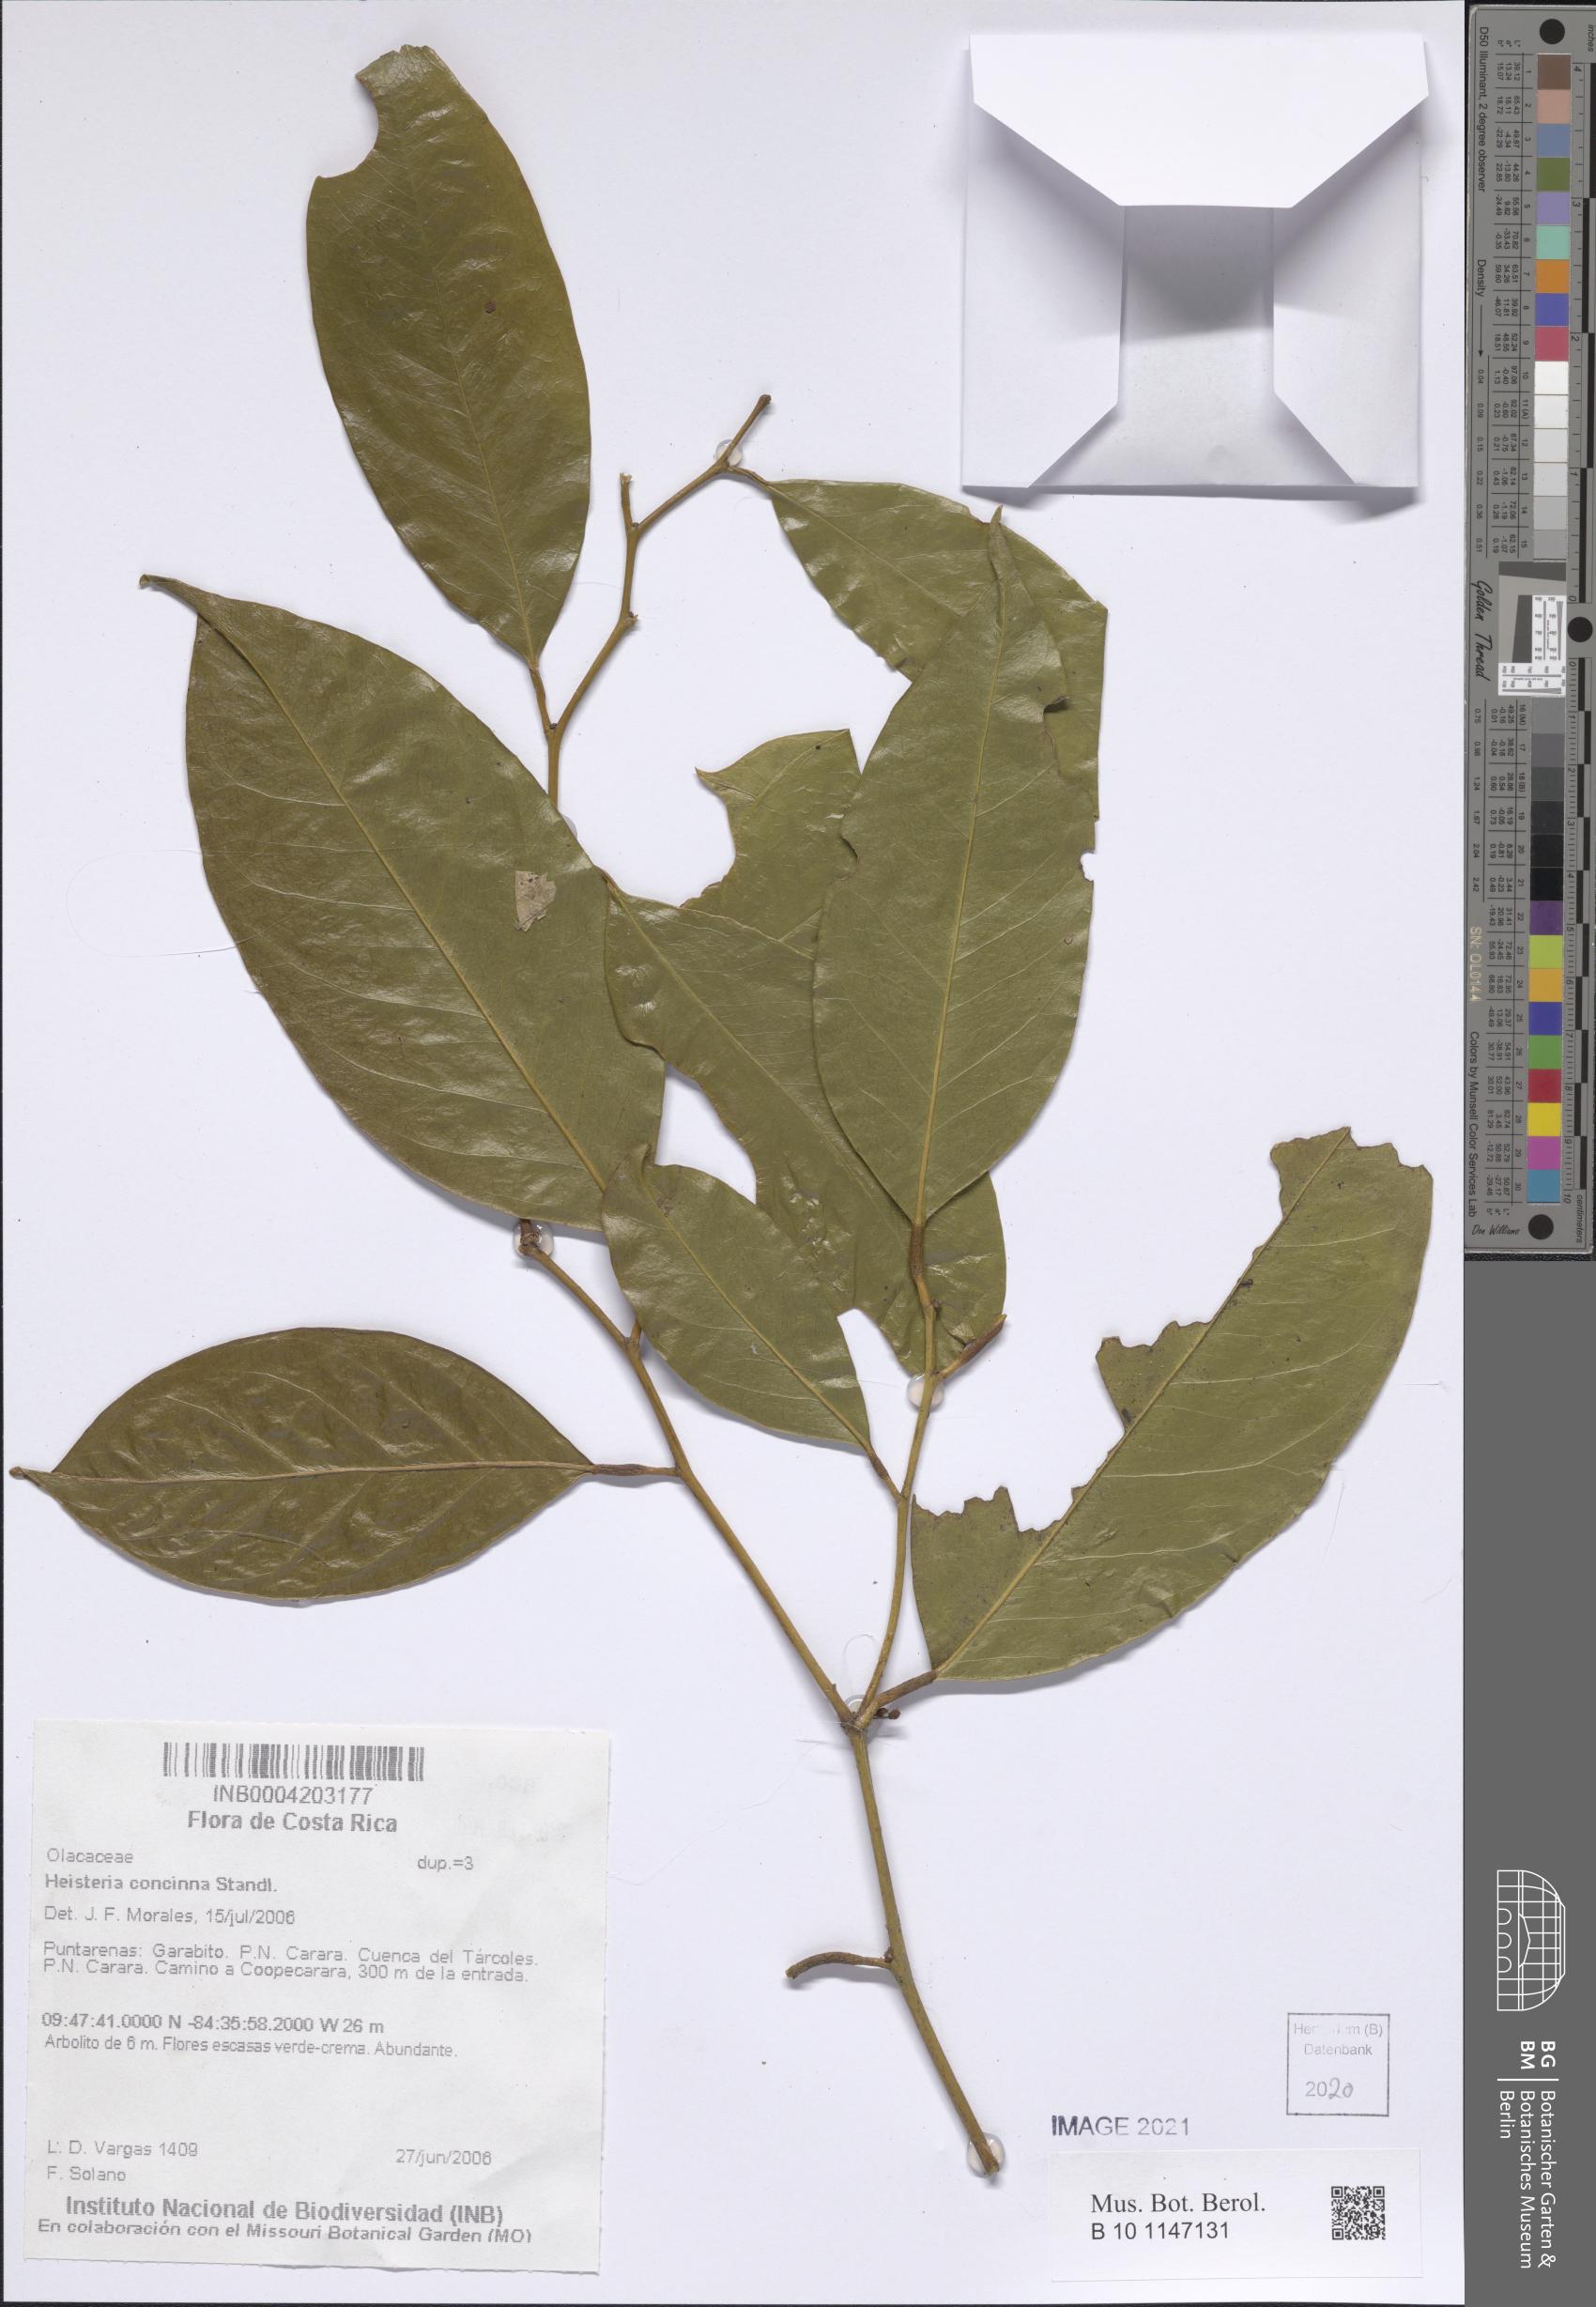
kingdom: Plantae
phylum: Tracheophyta
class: Magnoliopsida
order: Santalales
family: Erythropalaceae
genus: Heisteria
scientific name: Heisteria concinna
